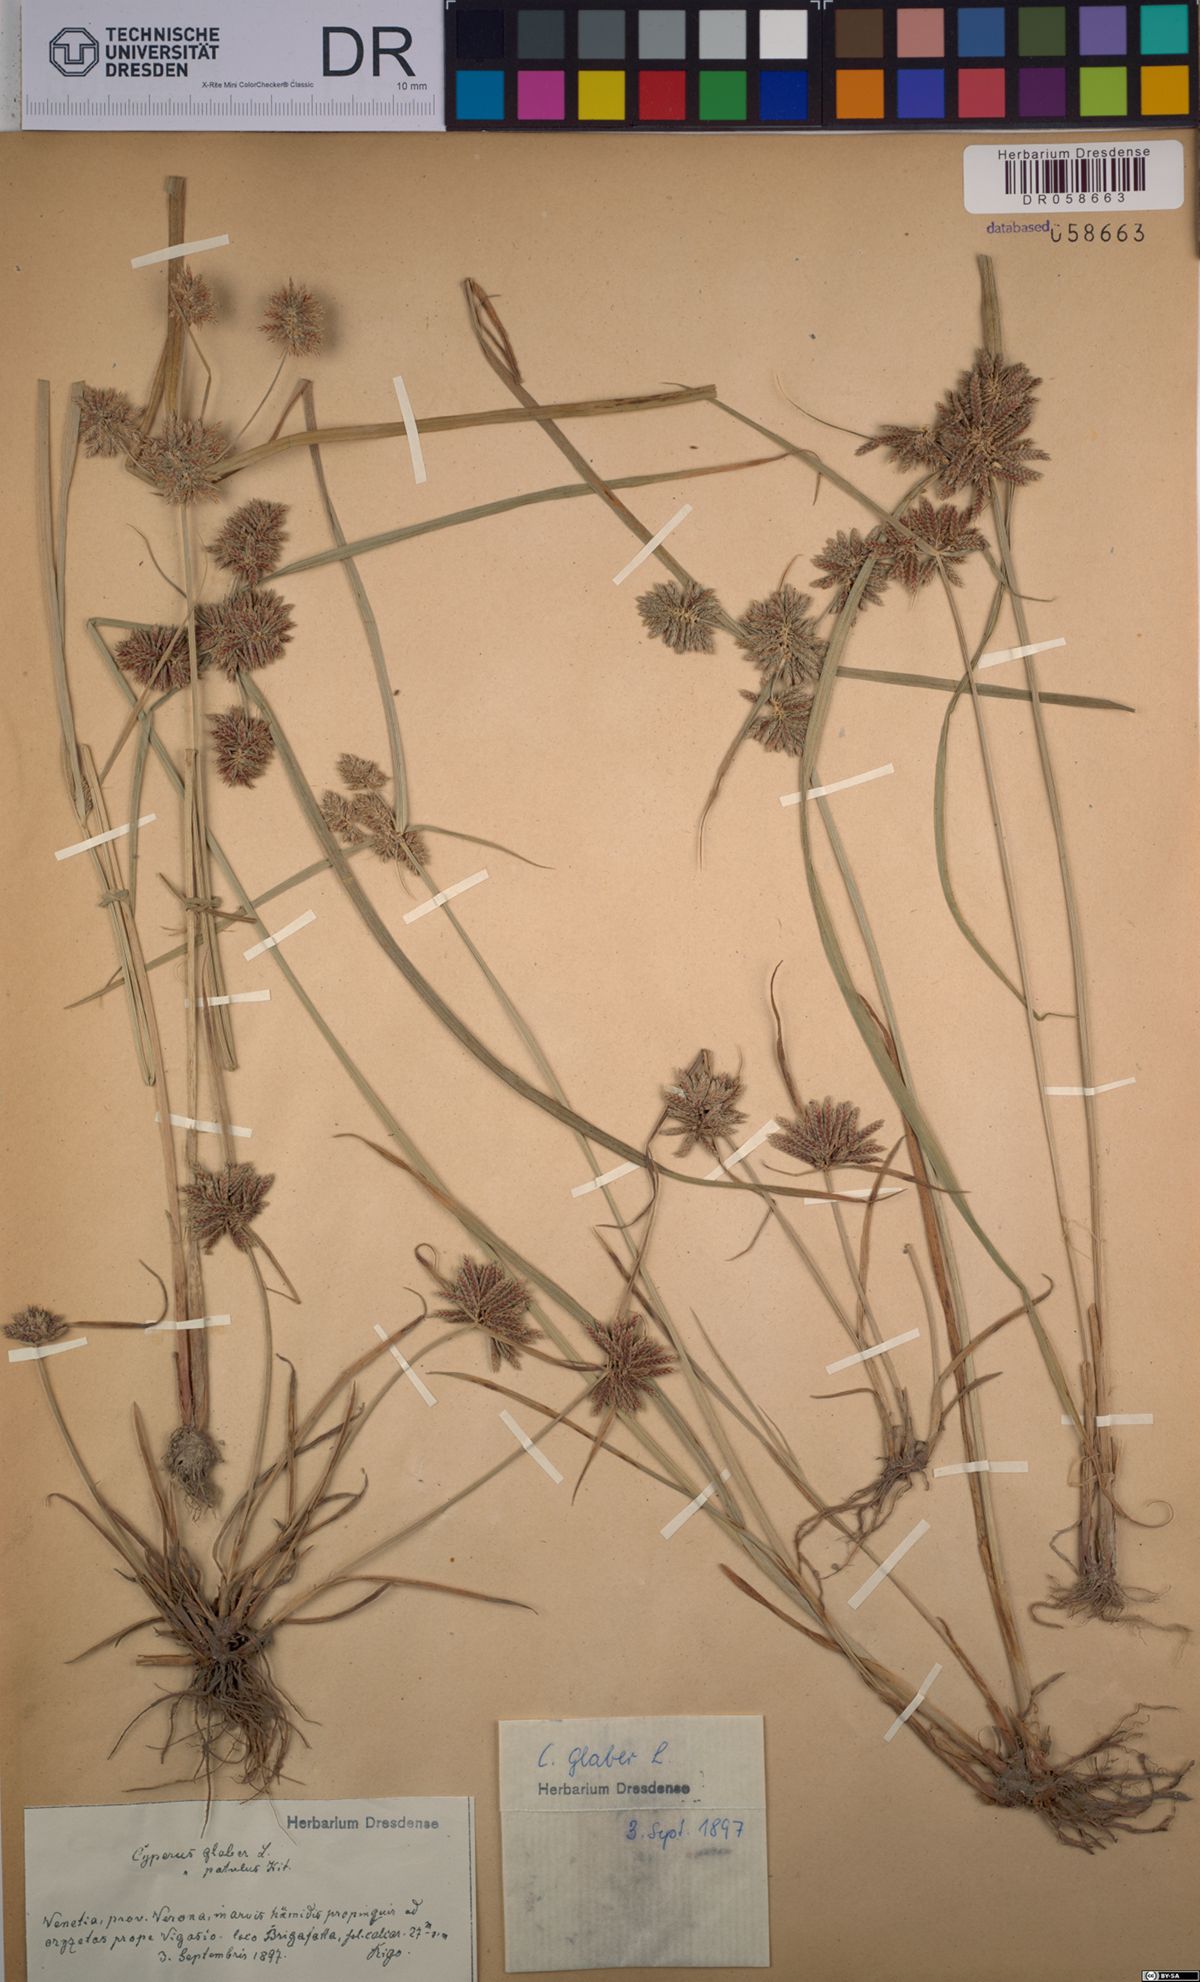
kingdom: Plantae
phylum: Tracheophyta
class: Liliopsida
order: Poales
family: Cyperaceae
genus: Cyperus
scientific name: Cyperus glaber
